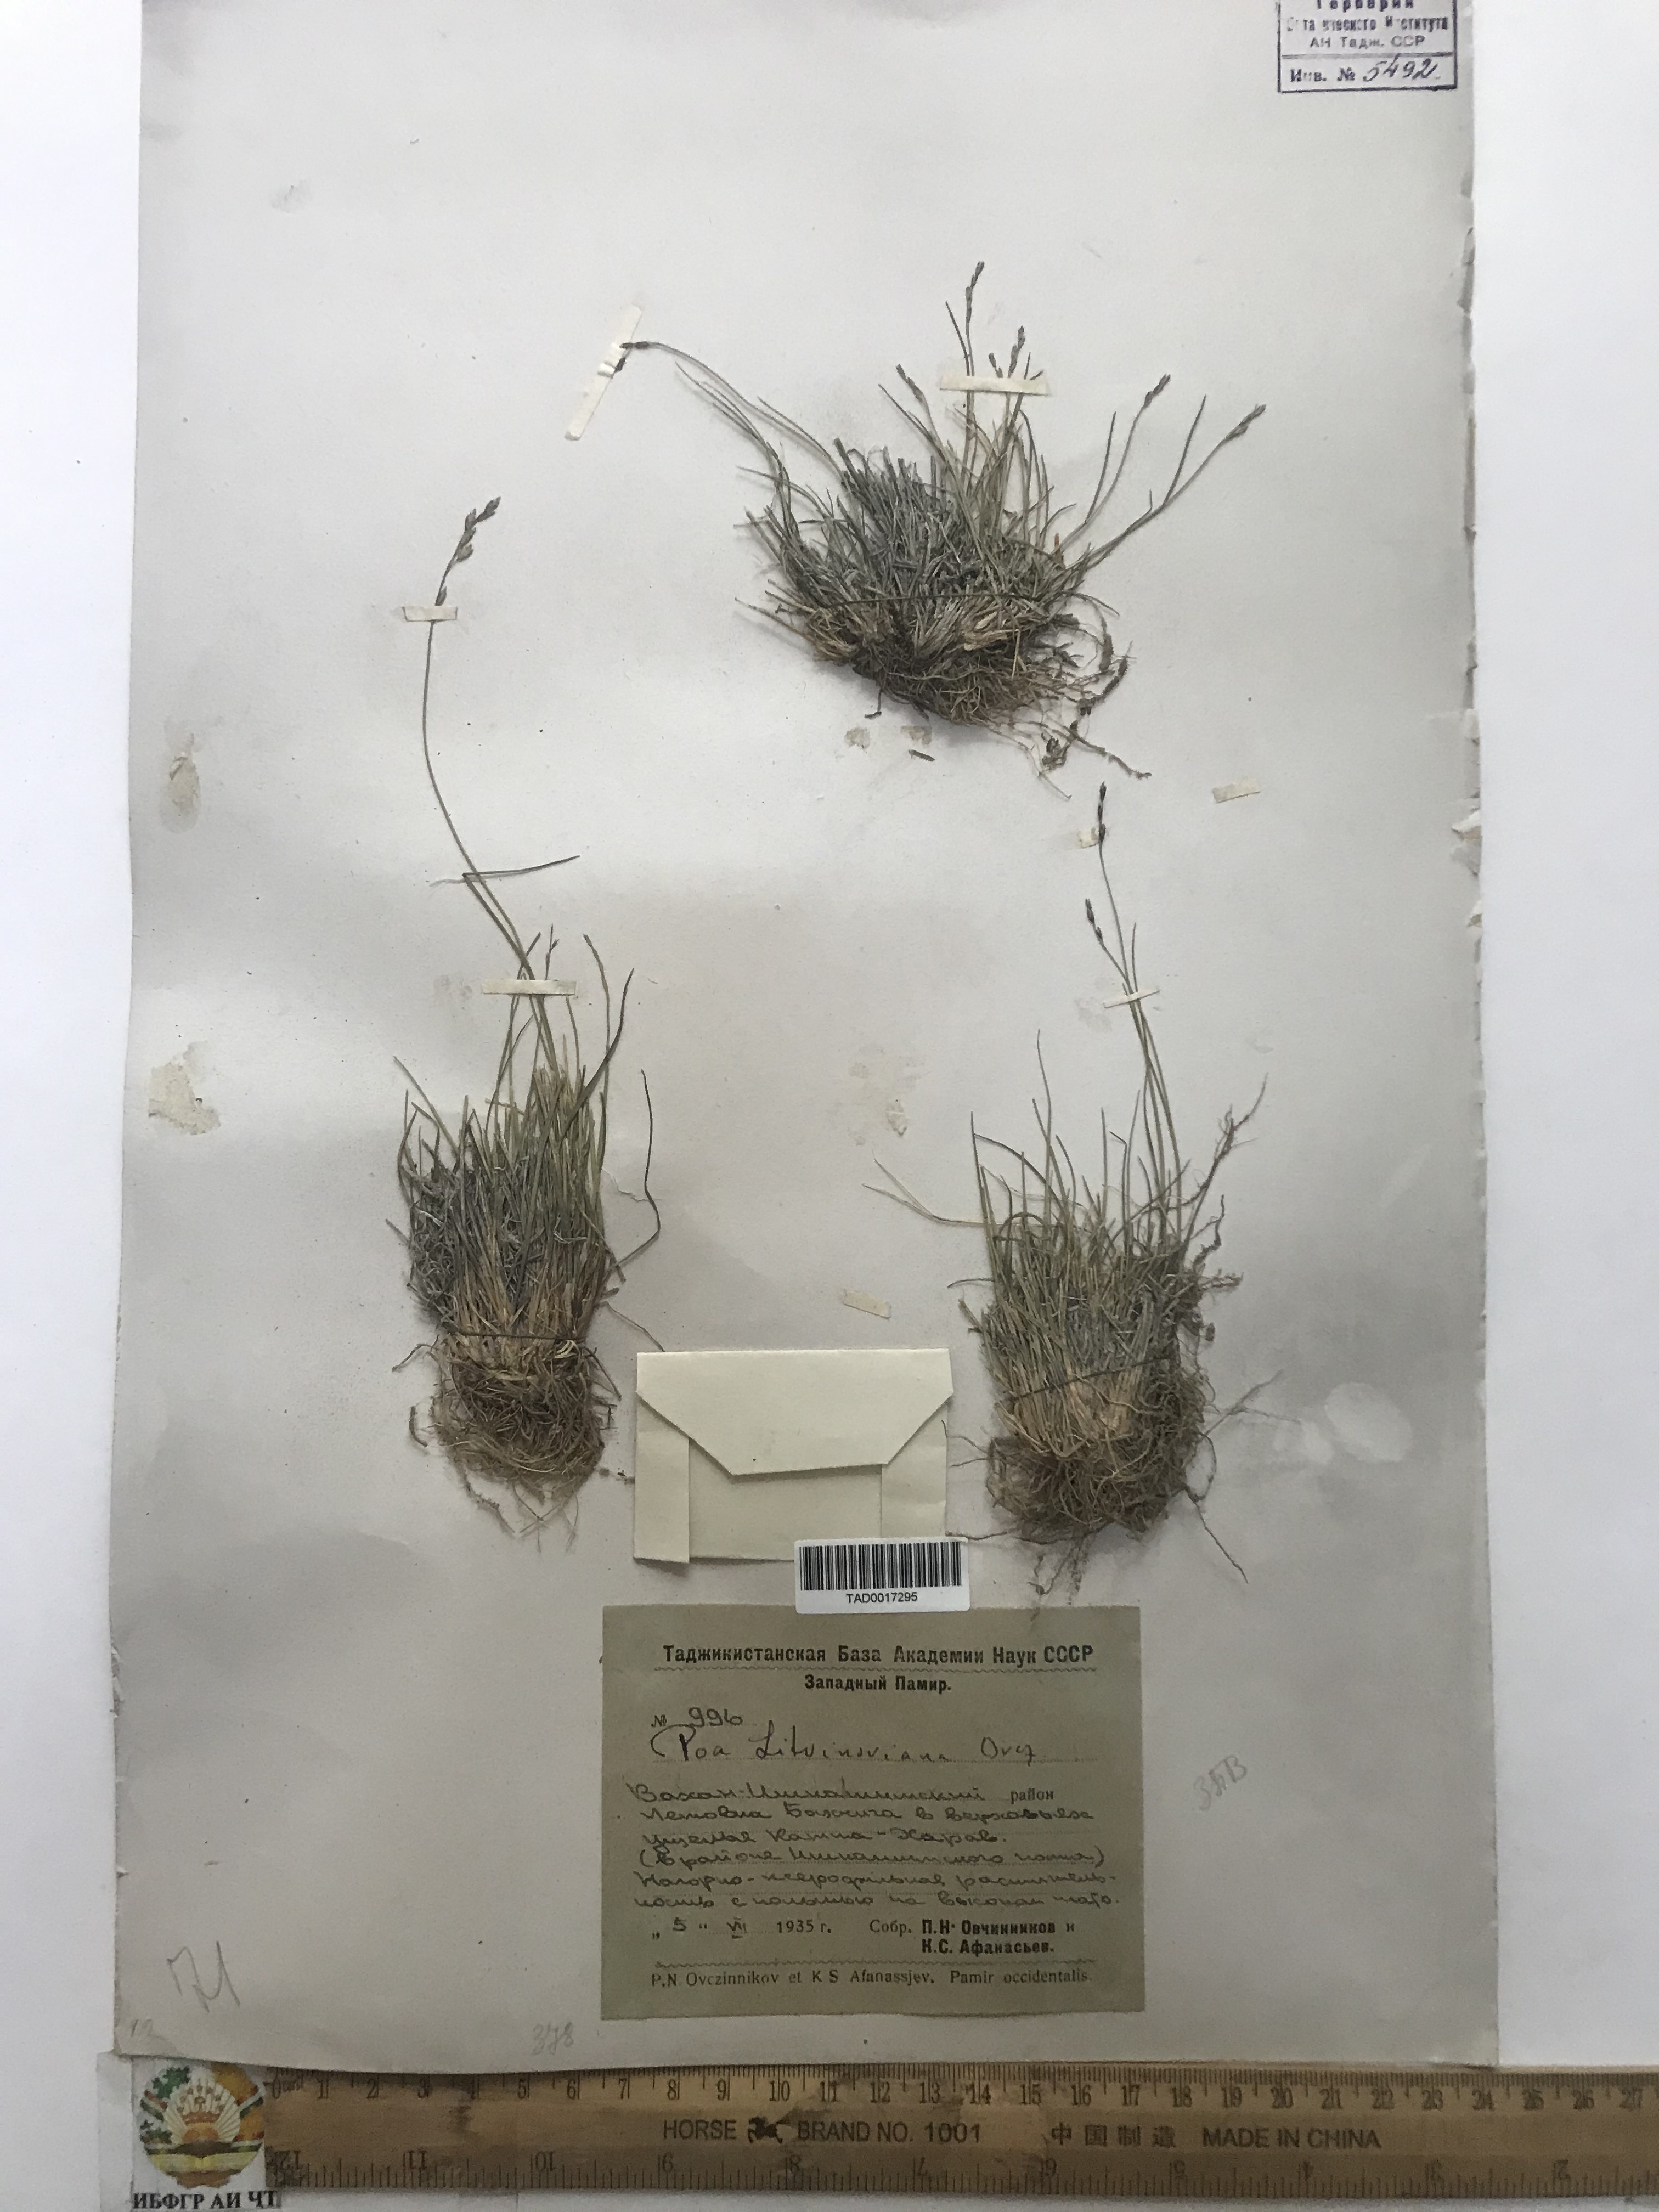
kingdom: Plantae
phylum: Tracheophyta
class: Liliopsida
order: Poales
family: Poaceae
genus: Poa
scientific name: Poa glauca
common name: Glaucous bluegrass
